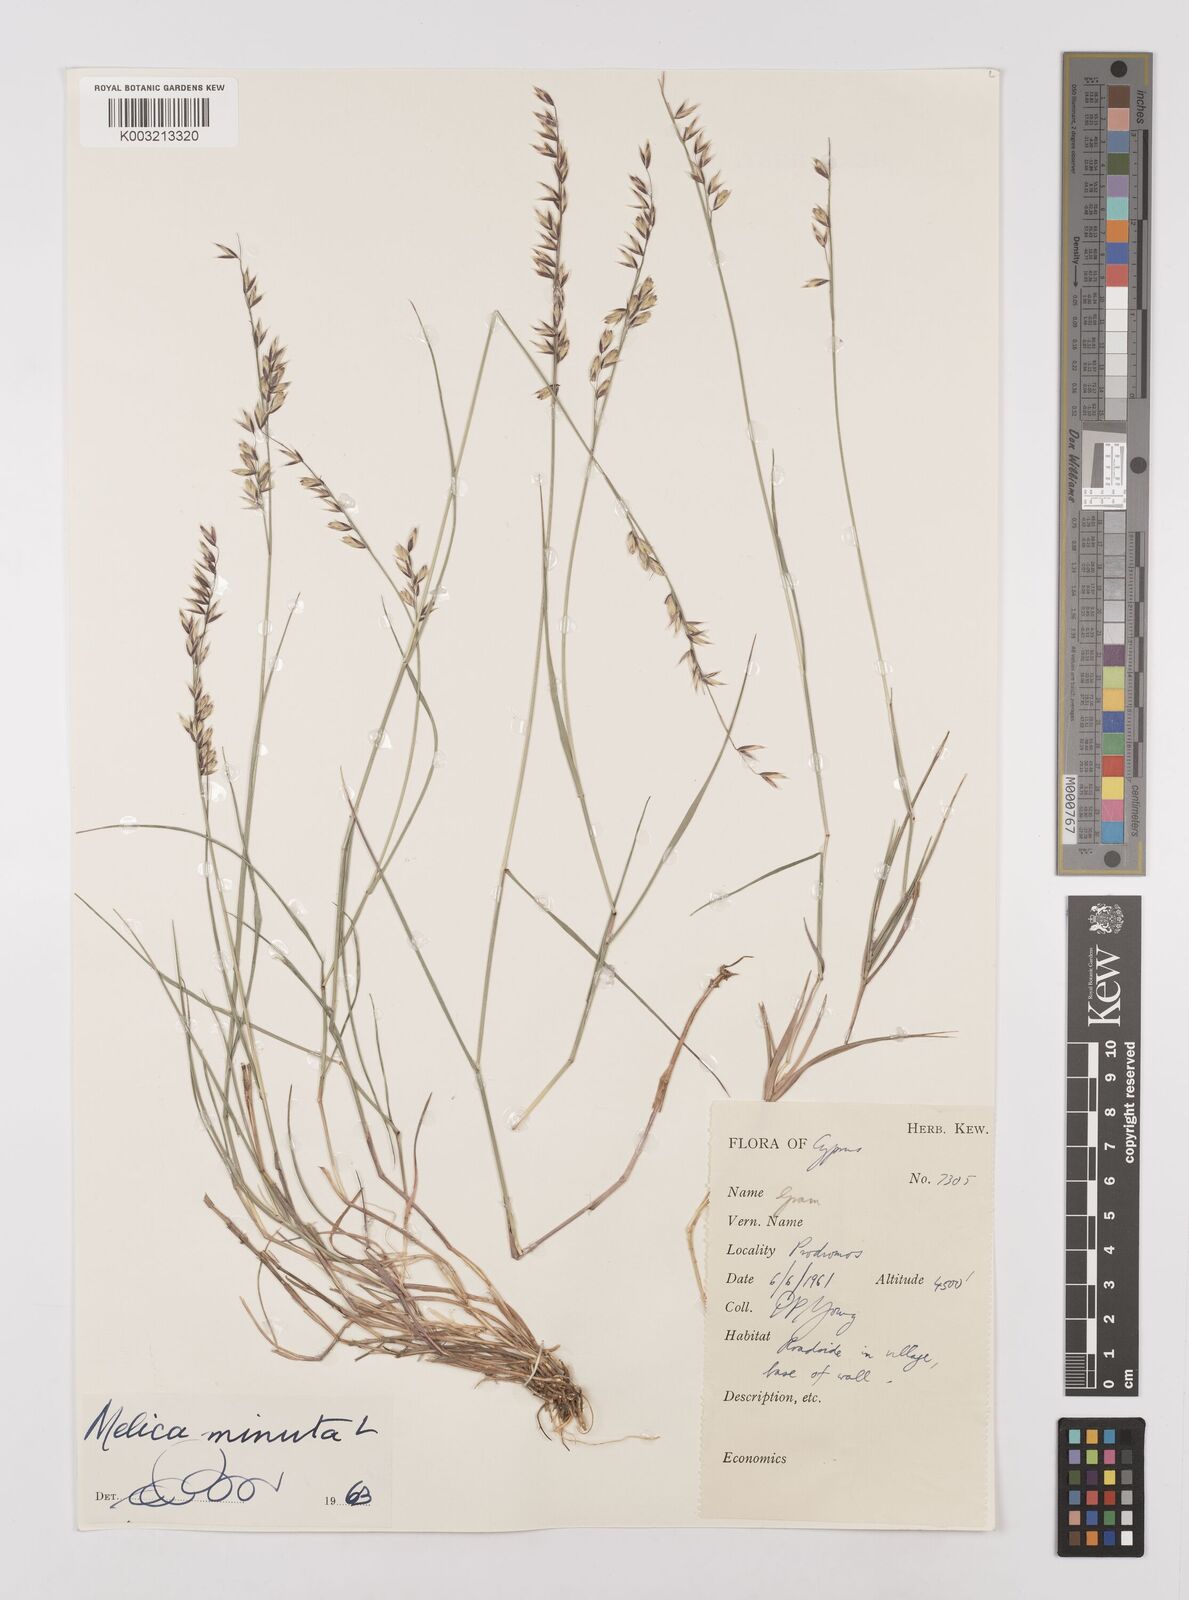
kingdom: Plantae
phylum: Tracheophyta
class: Liliopsida
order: Poales
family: Poaceae
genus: Melica
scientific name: Melica minuta
